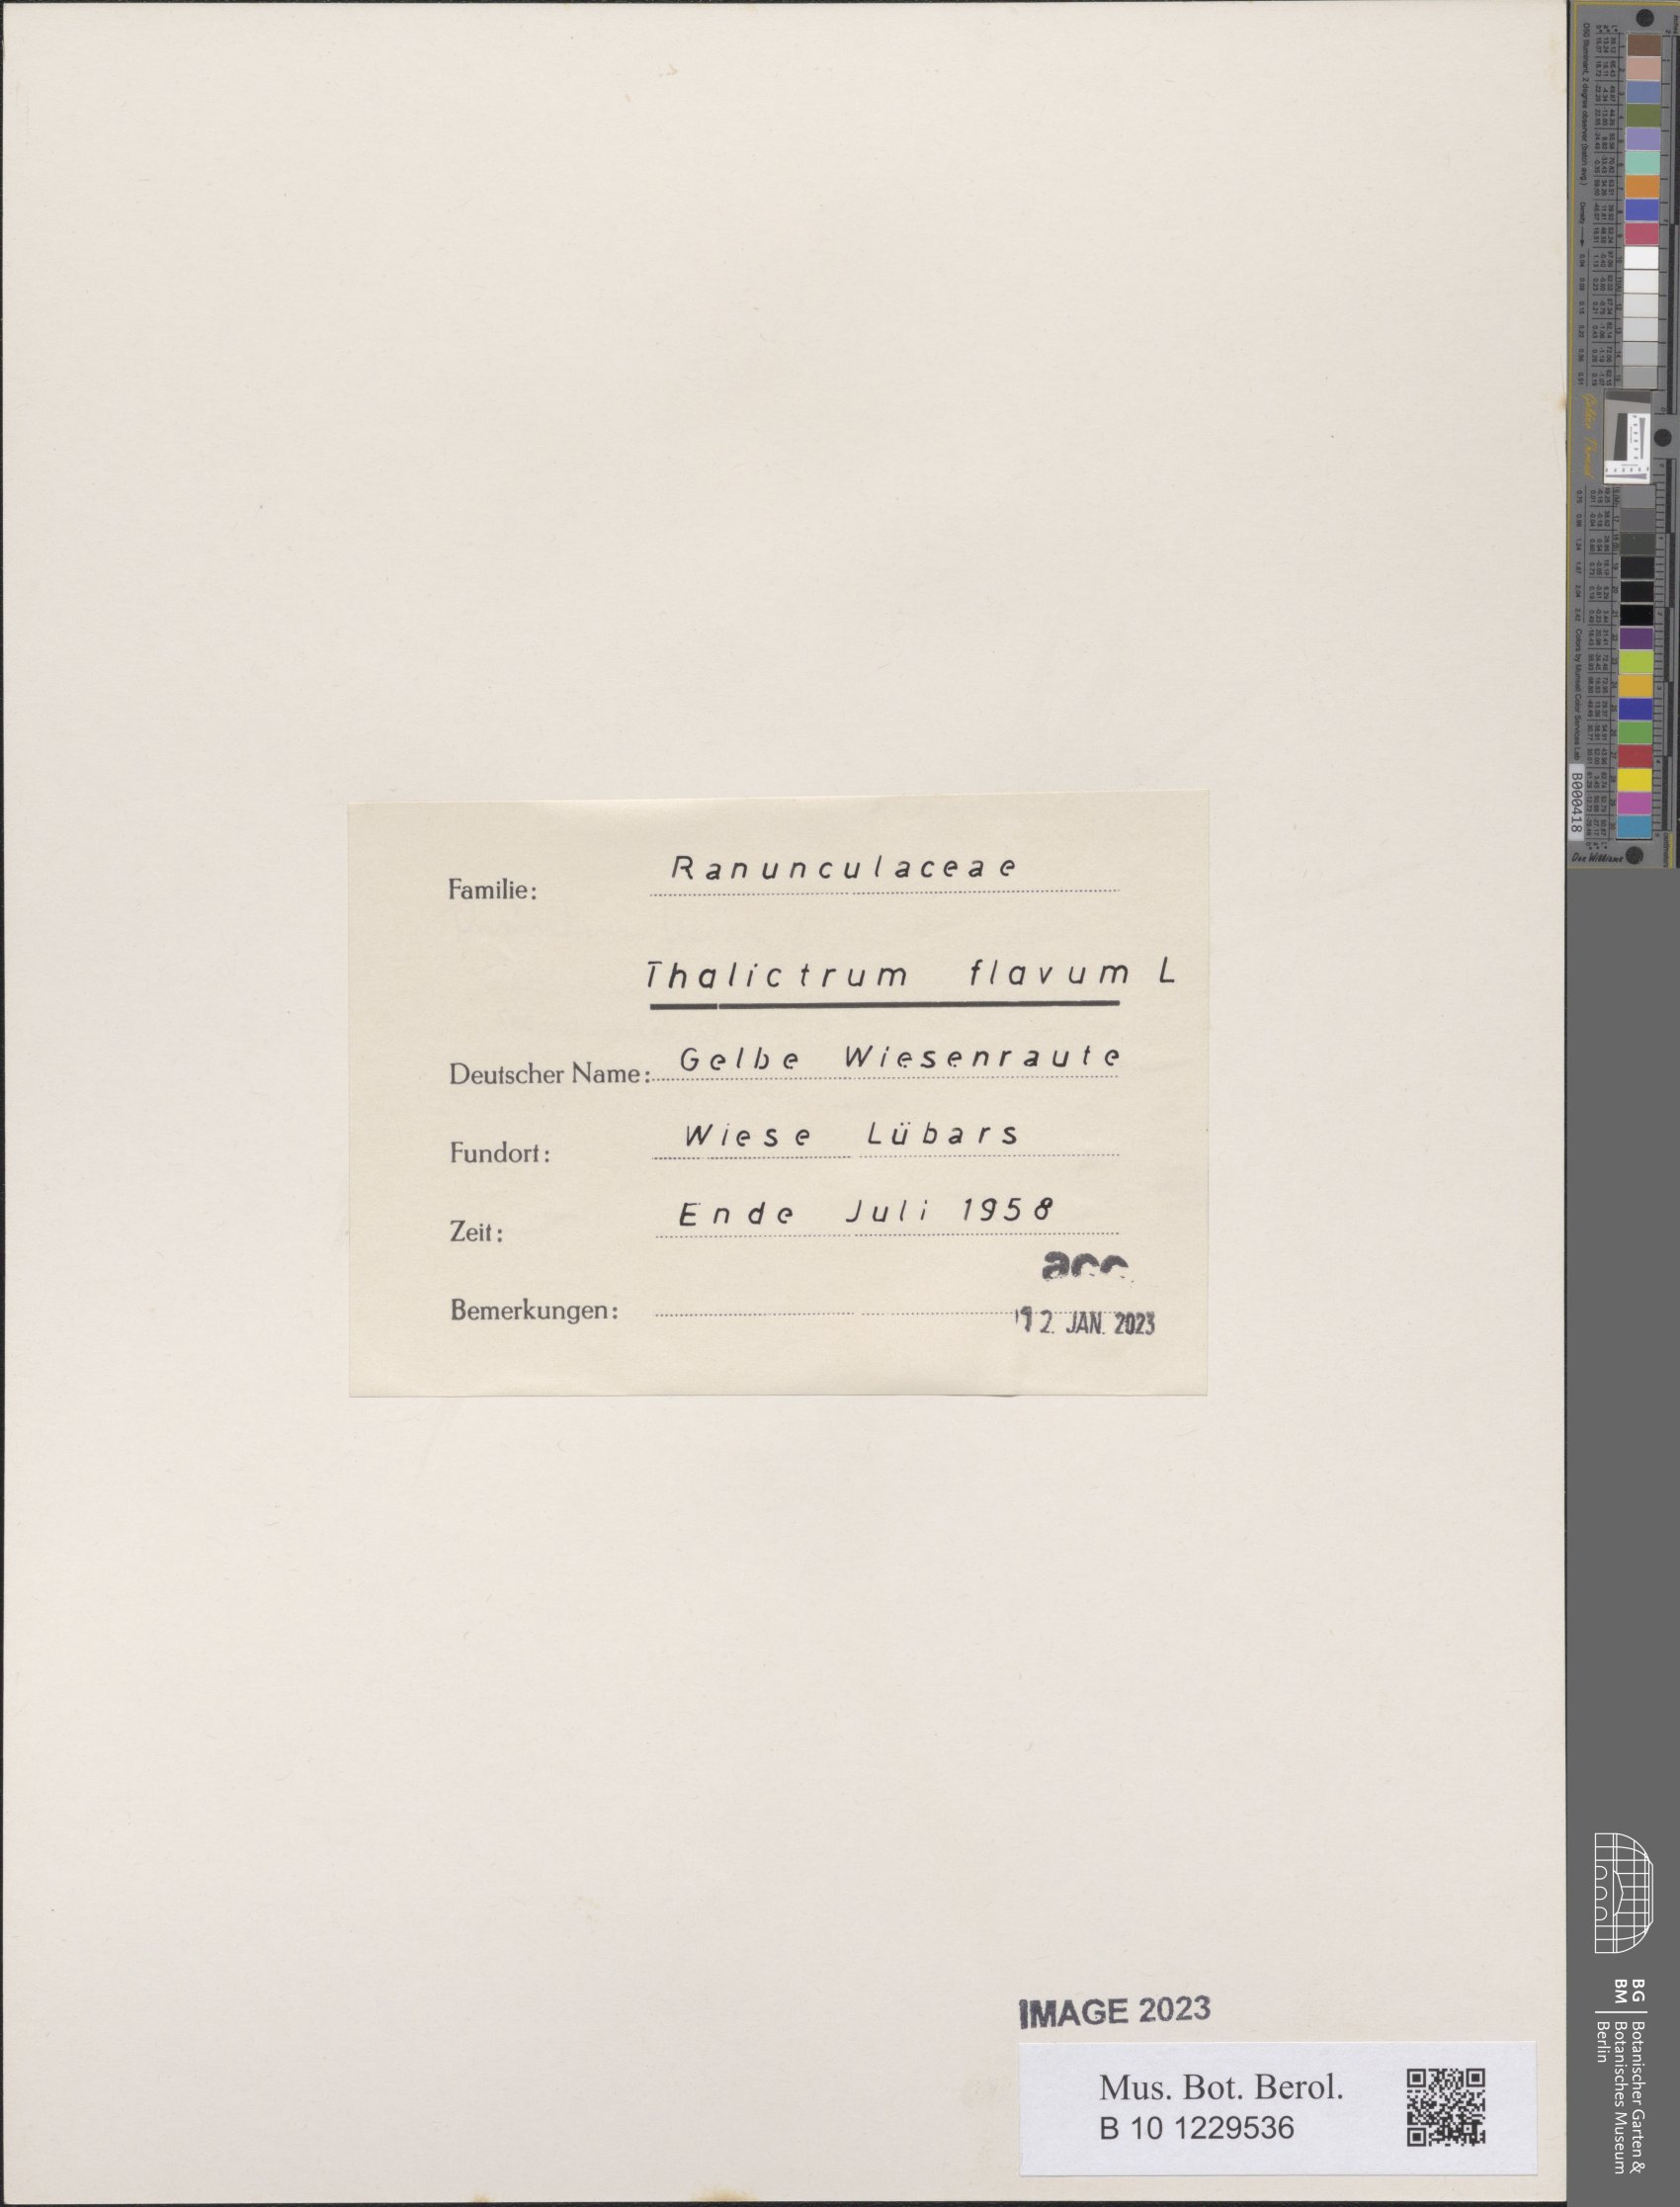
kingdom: Plantae
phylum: Tracheophyta
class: Magnoliopsida
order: Ranunculales
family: Ranunculaceae
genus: Thalictrum
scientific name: Thalictrum flavum
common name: Common meadow-rue
